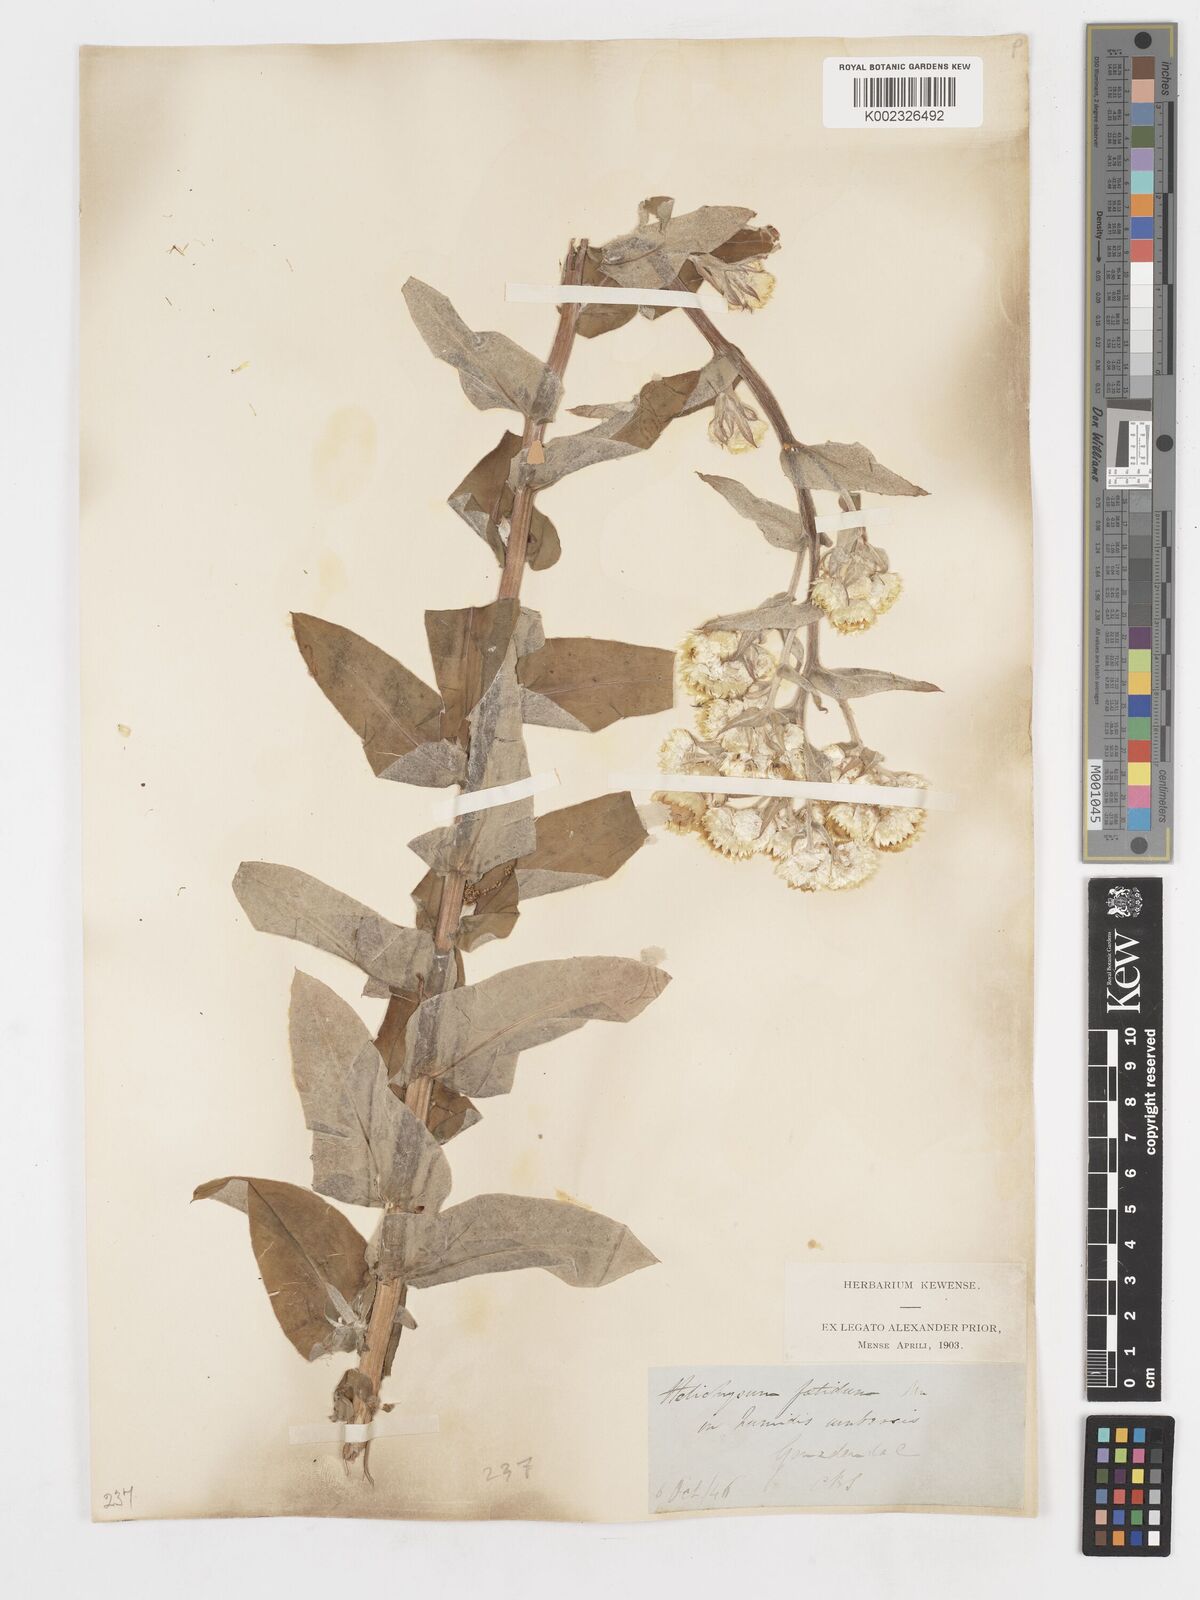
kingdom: Plantae
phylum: Tracheophyta
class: Magnoliopsida
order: Asterales
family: Asteraceae
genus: Helichrysum
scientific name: Helichrysum foetidum
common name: Stinking everlasting
